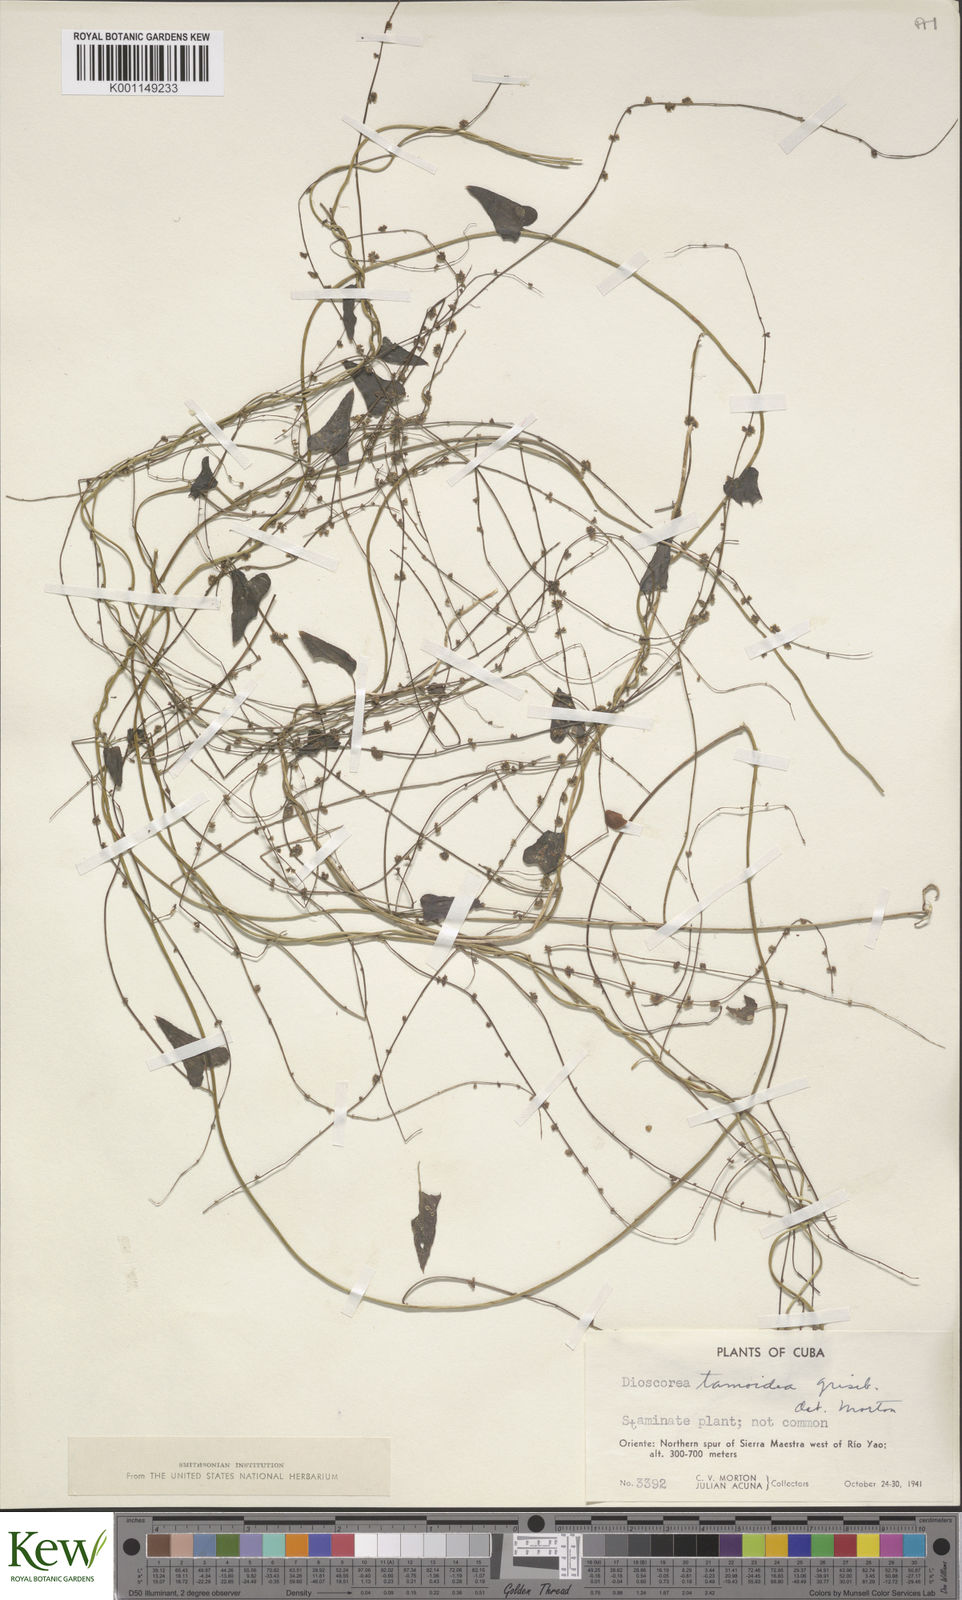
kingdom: Plantae
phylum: Tracheophyta
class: Liliopsida
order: Dioscoreales
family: Dioscoreaceae
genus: Dioscorea
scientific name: Dioscorea tamoidea
